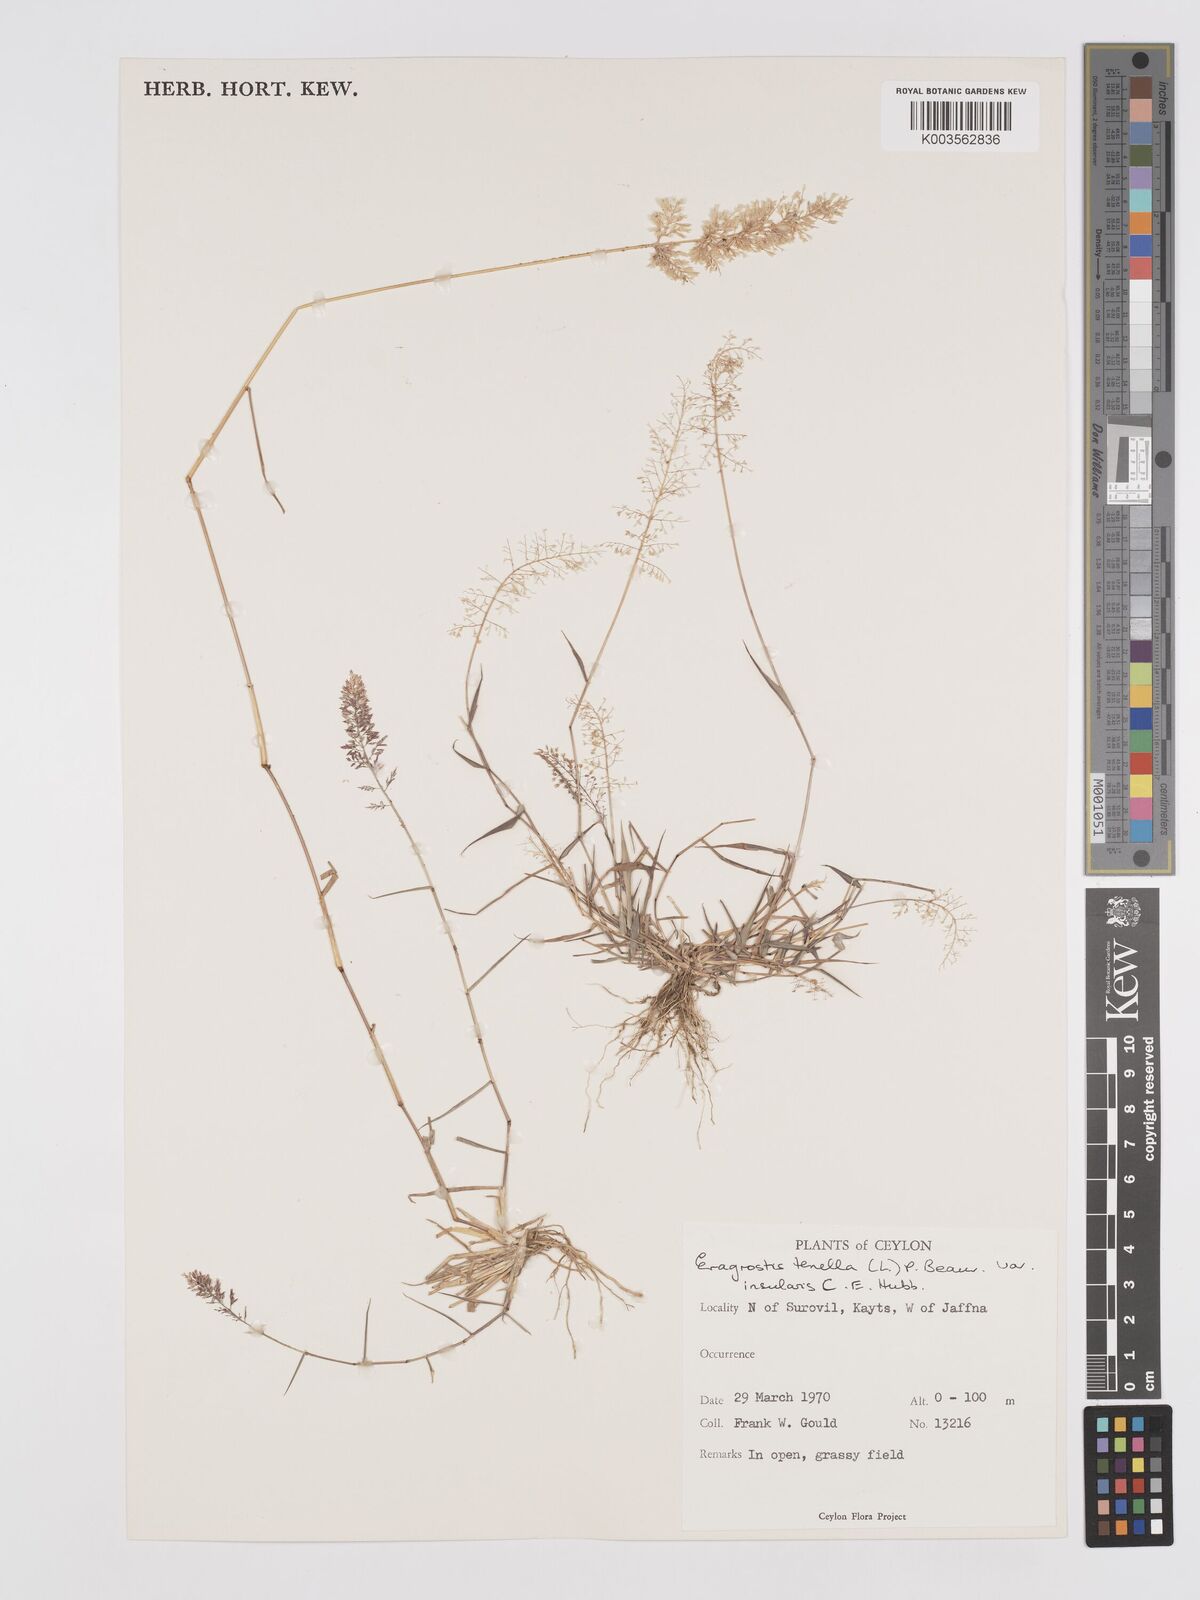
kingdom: Plantae
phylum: Tracheophyta
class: Liliopsida
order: Poales
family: Poaceae
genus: Eragrostis
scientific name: Eragrostis viscosa
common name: Sticky love grass
